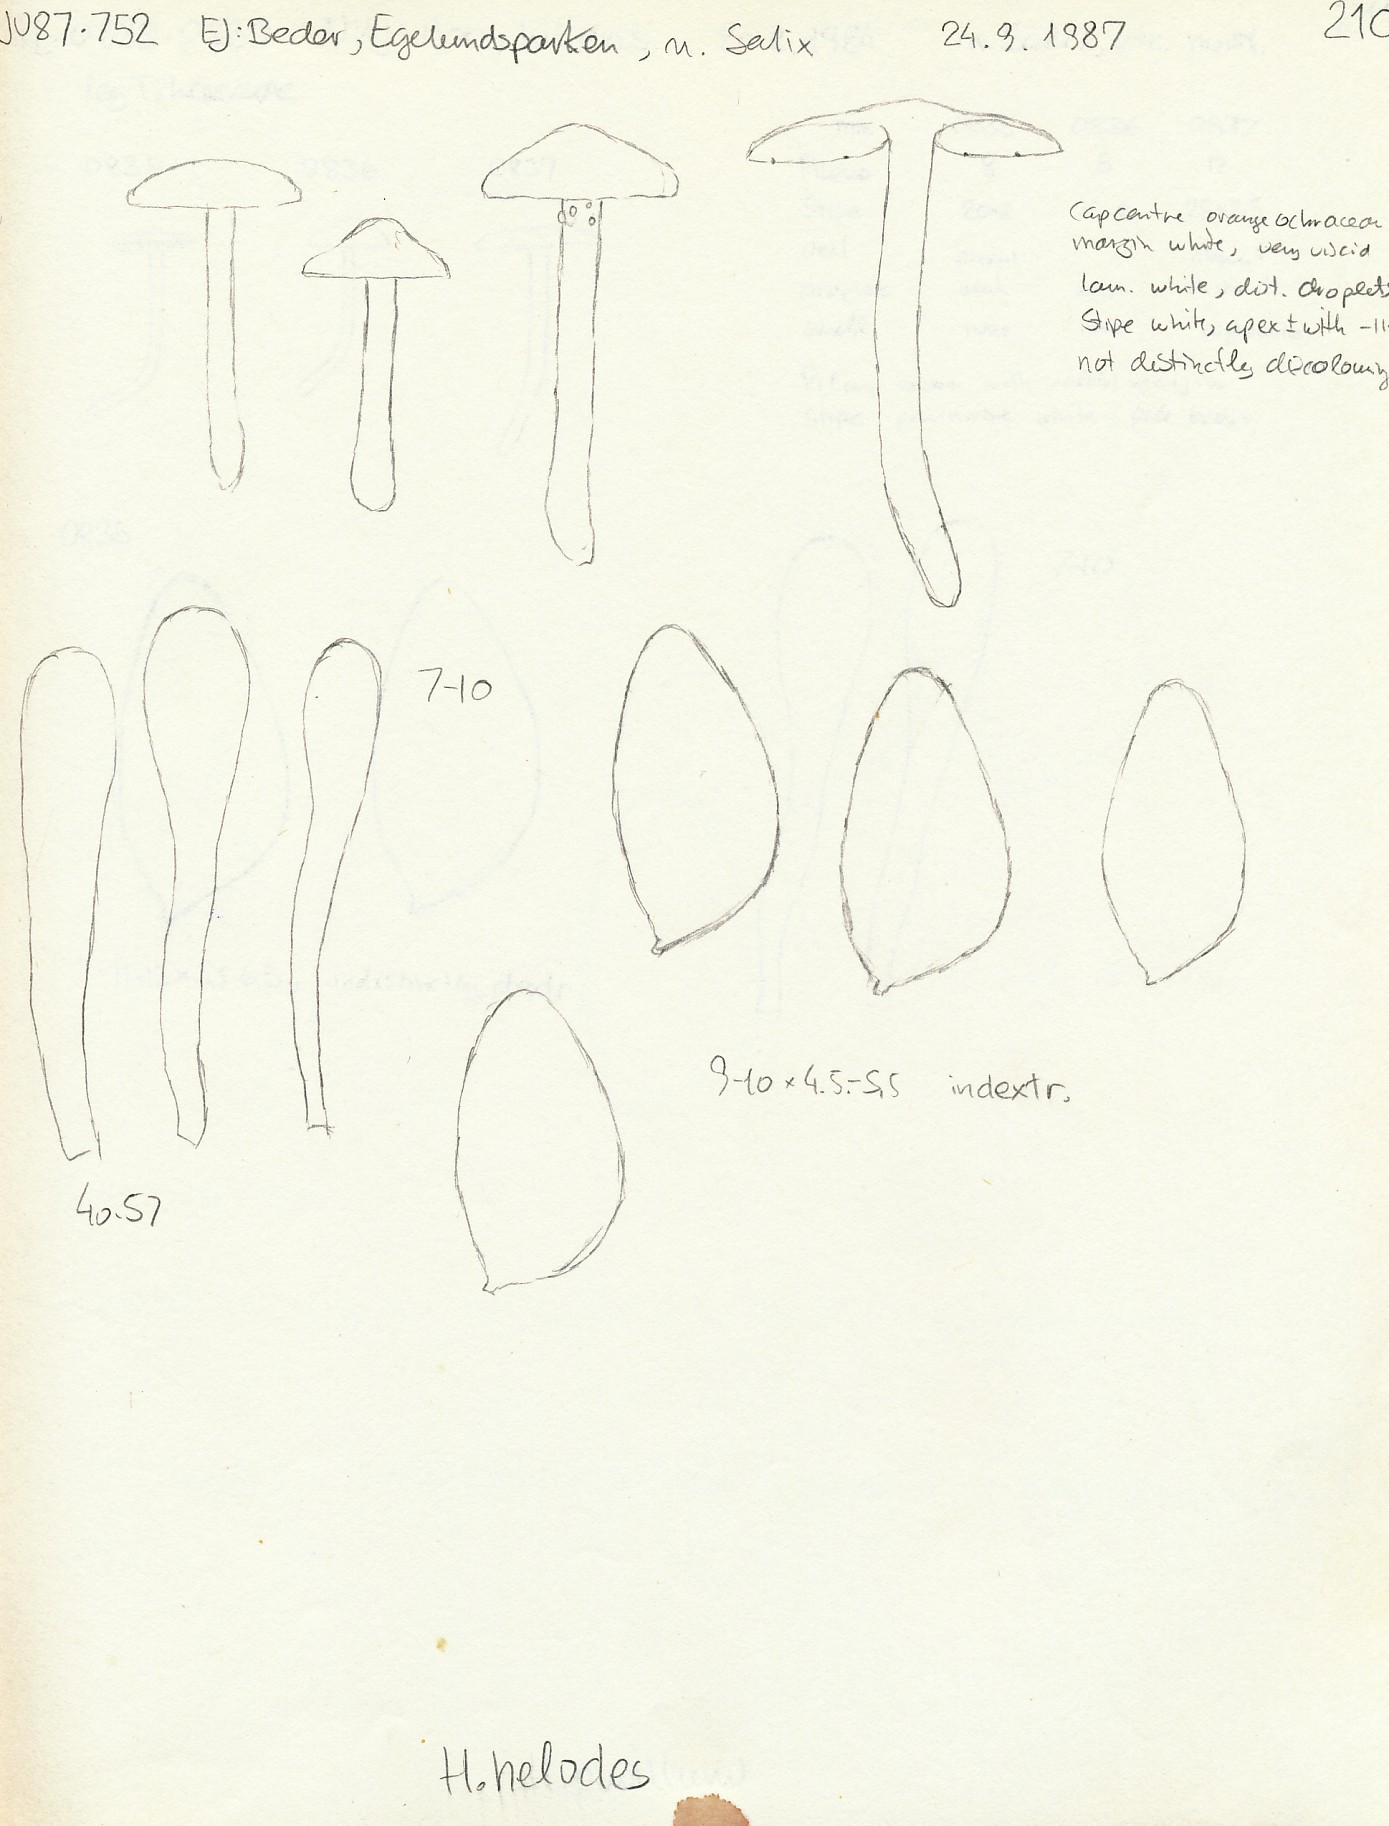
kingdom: Fungi
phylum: Basidiomycota
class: Agaricomycetes
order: Agaricales
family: Hymenogastraceae
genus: Hebeloma
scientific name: Hebeloma helodes
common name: rank tåreblad
